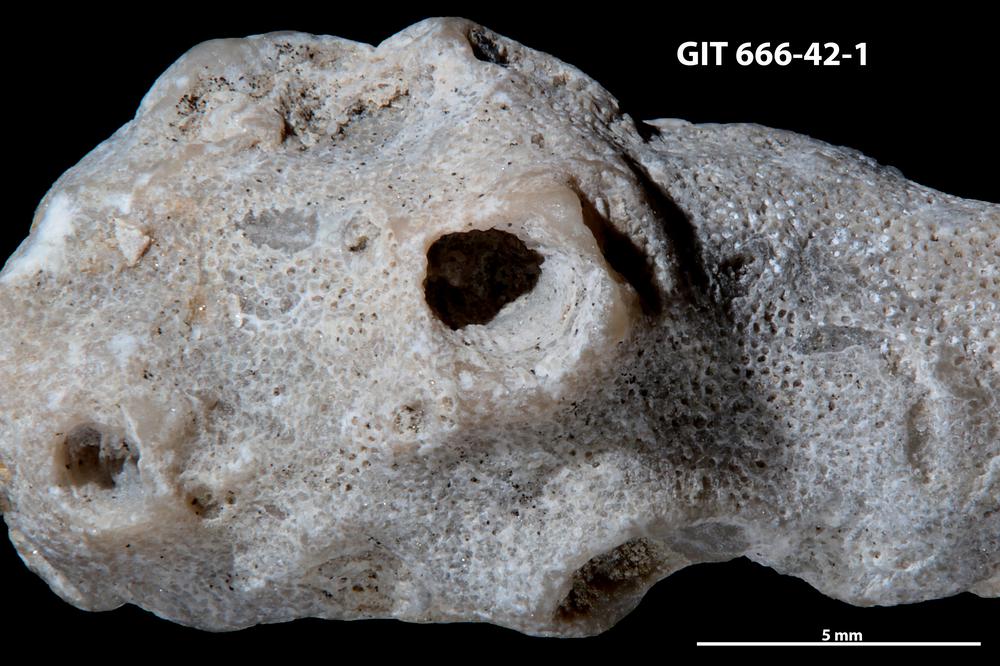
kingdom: Animalia
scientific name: Animalia
